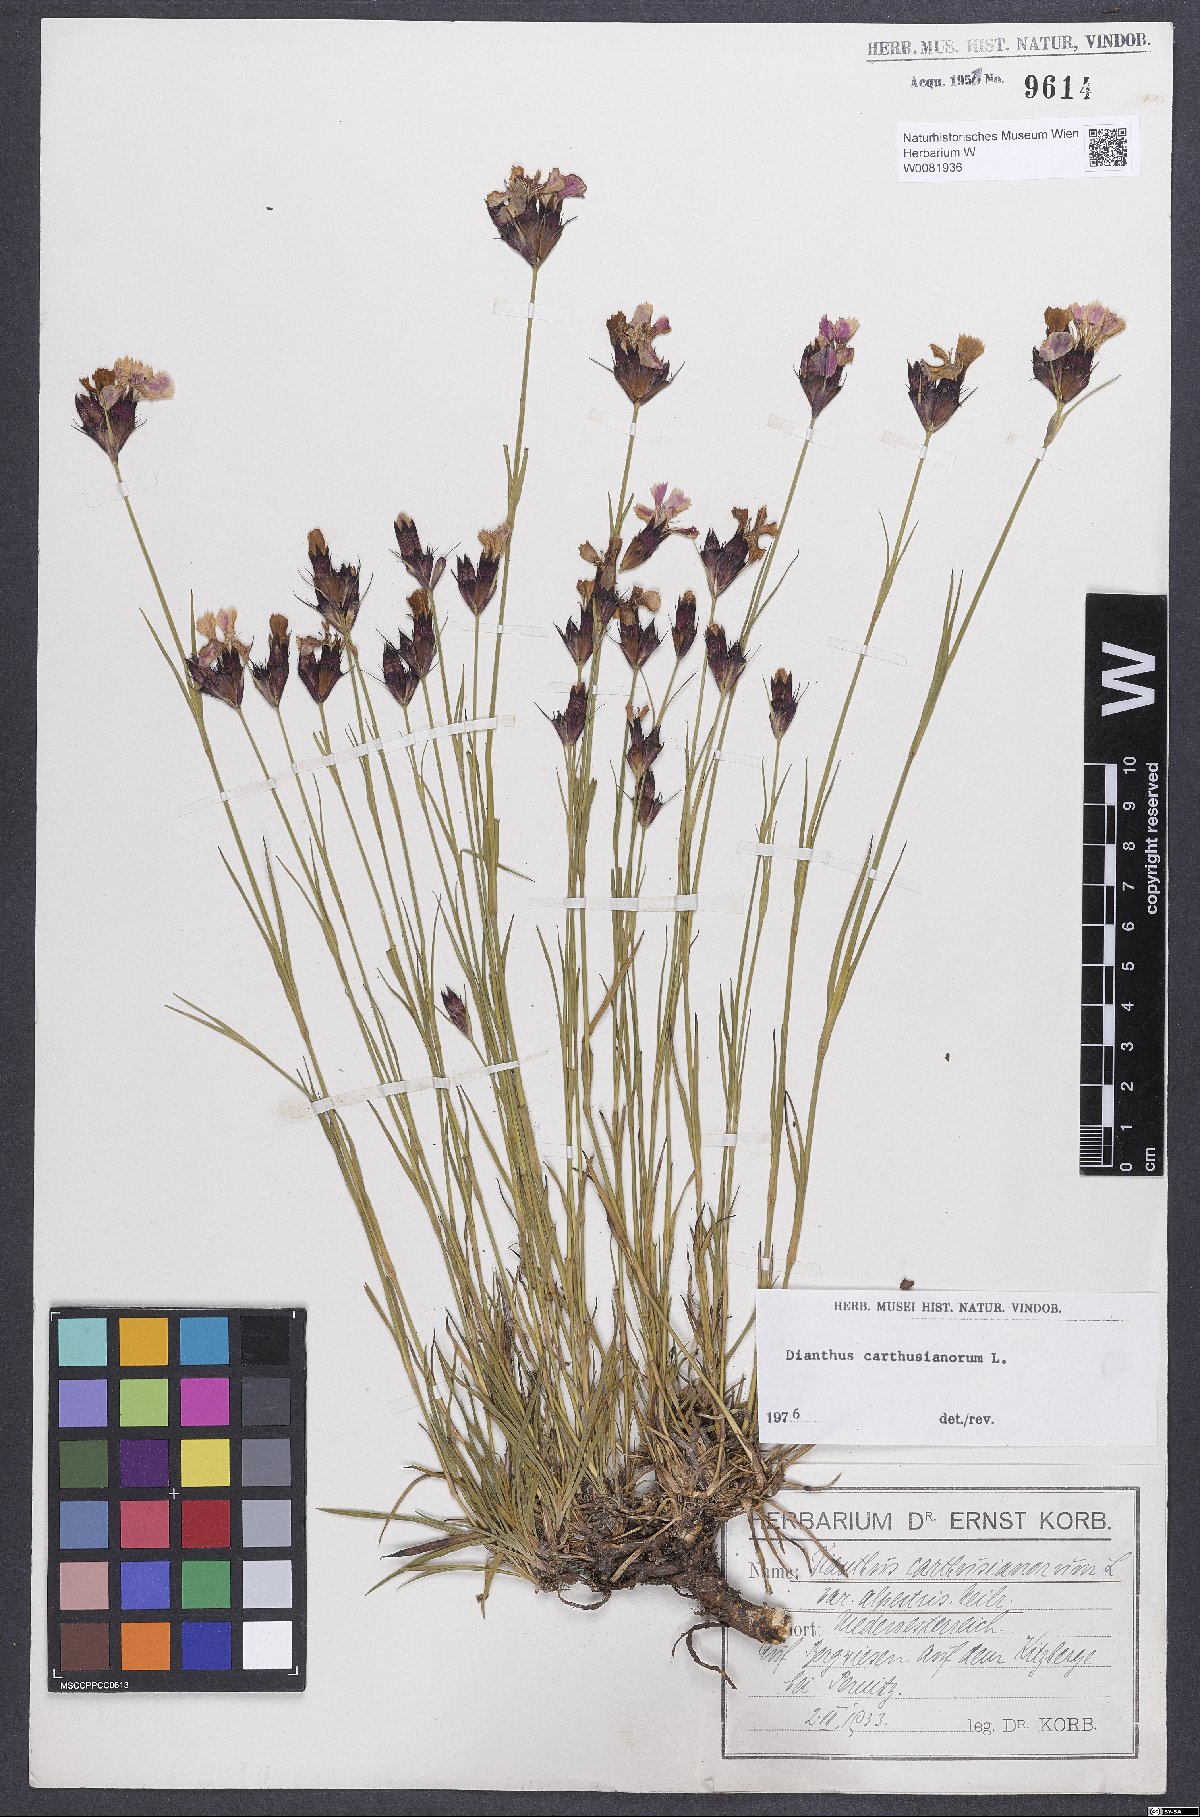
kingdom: Plantae
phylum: Tracheophyta
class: Magnoliopsida
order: Caryophyllales
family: Caryophyllaceae
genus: Dianthus
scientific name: Dianthus carthusianorum
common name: Carthusian pink
